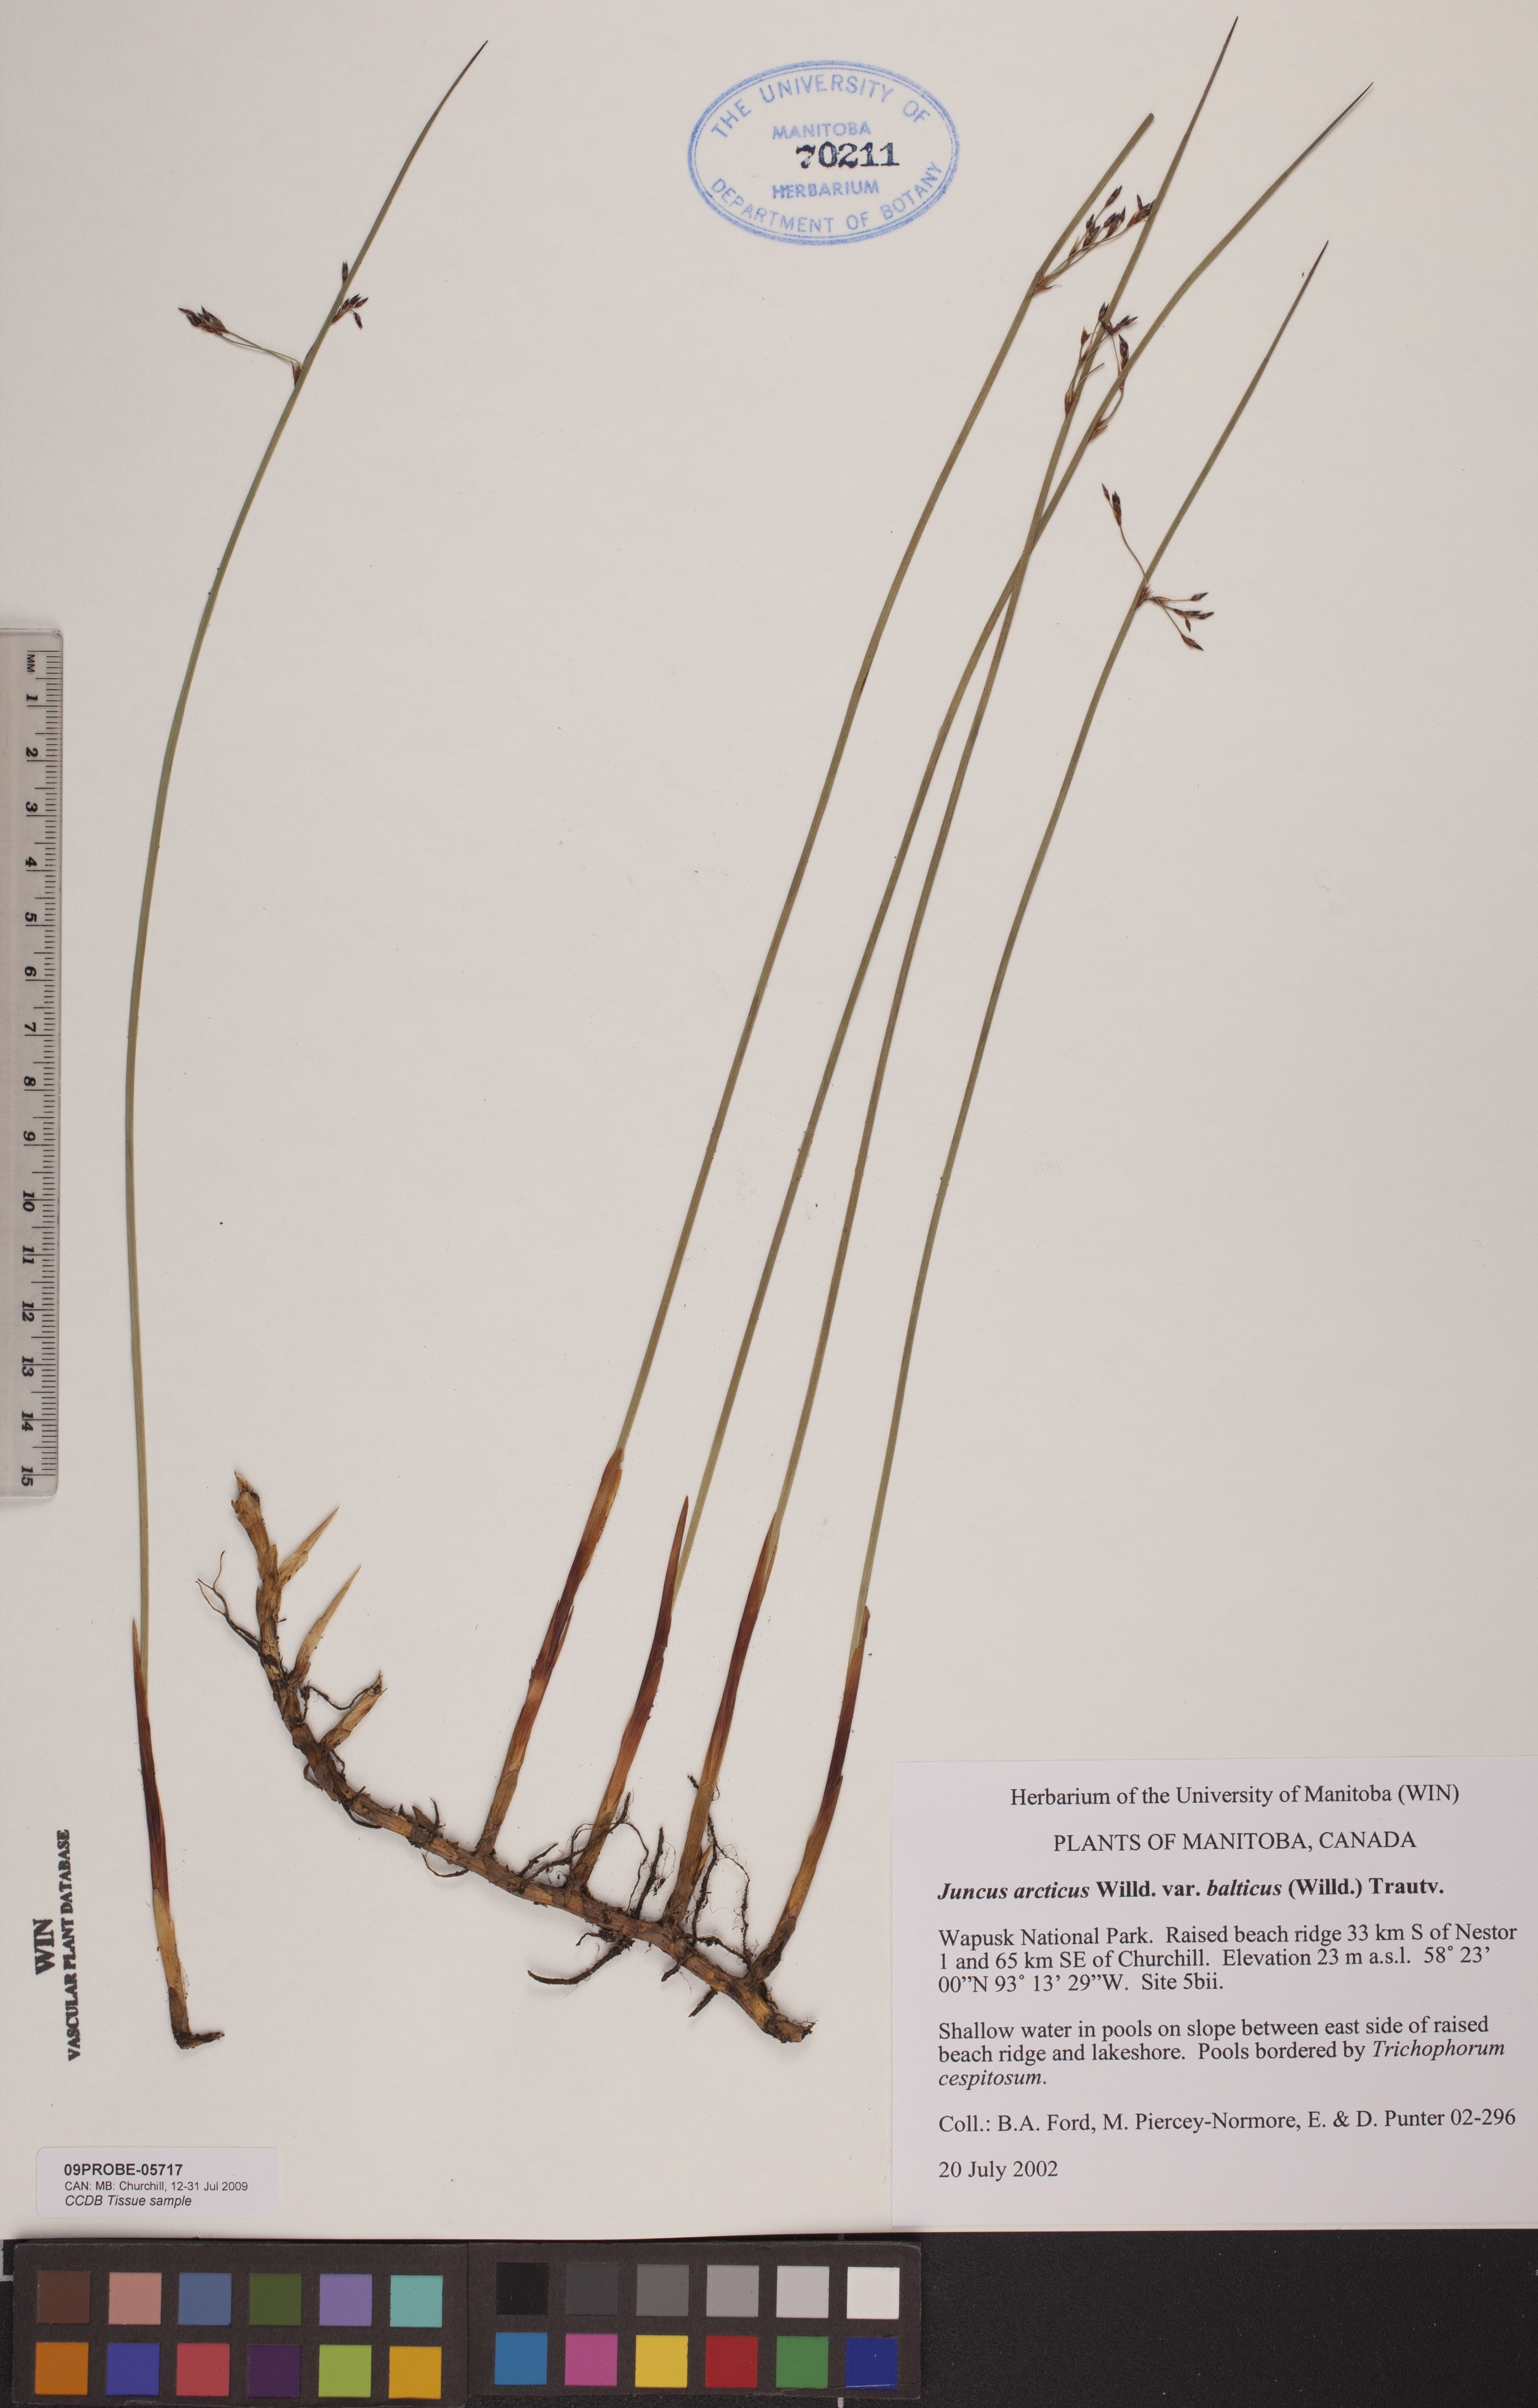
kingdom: Plantae
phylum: Tracheophyta
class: Liliopsida
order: Poales
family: Juncaceae
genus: Juncus
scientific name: Juncus balticus
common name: Baltic rush
